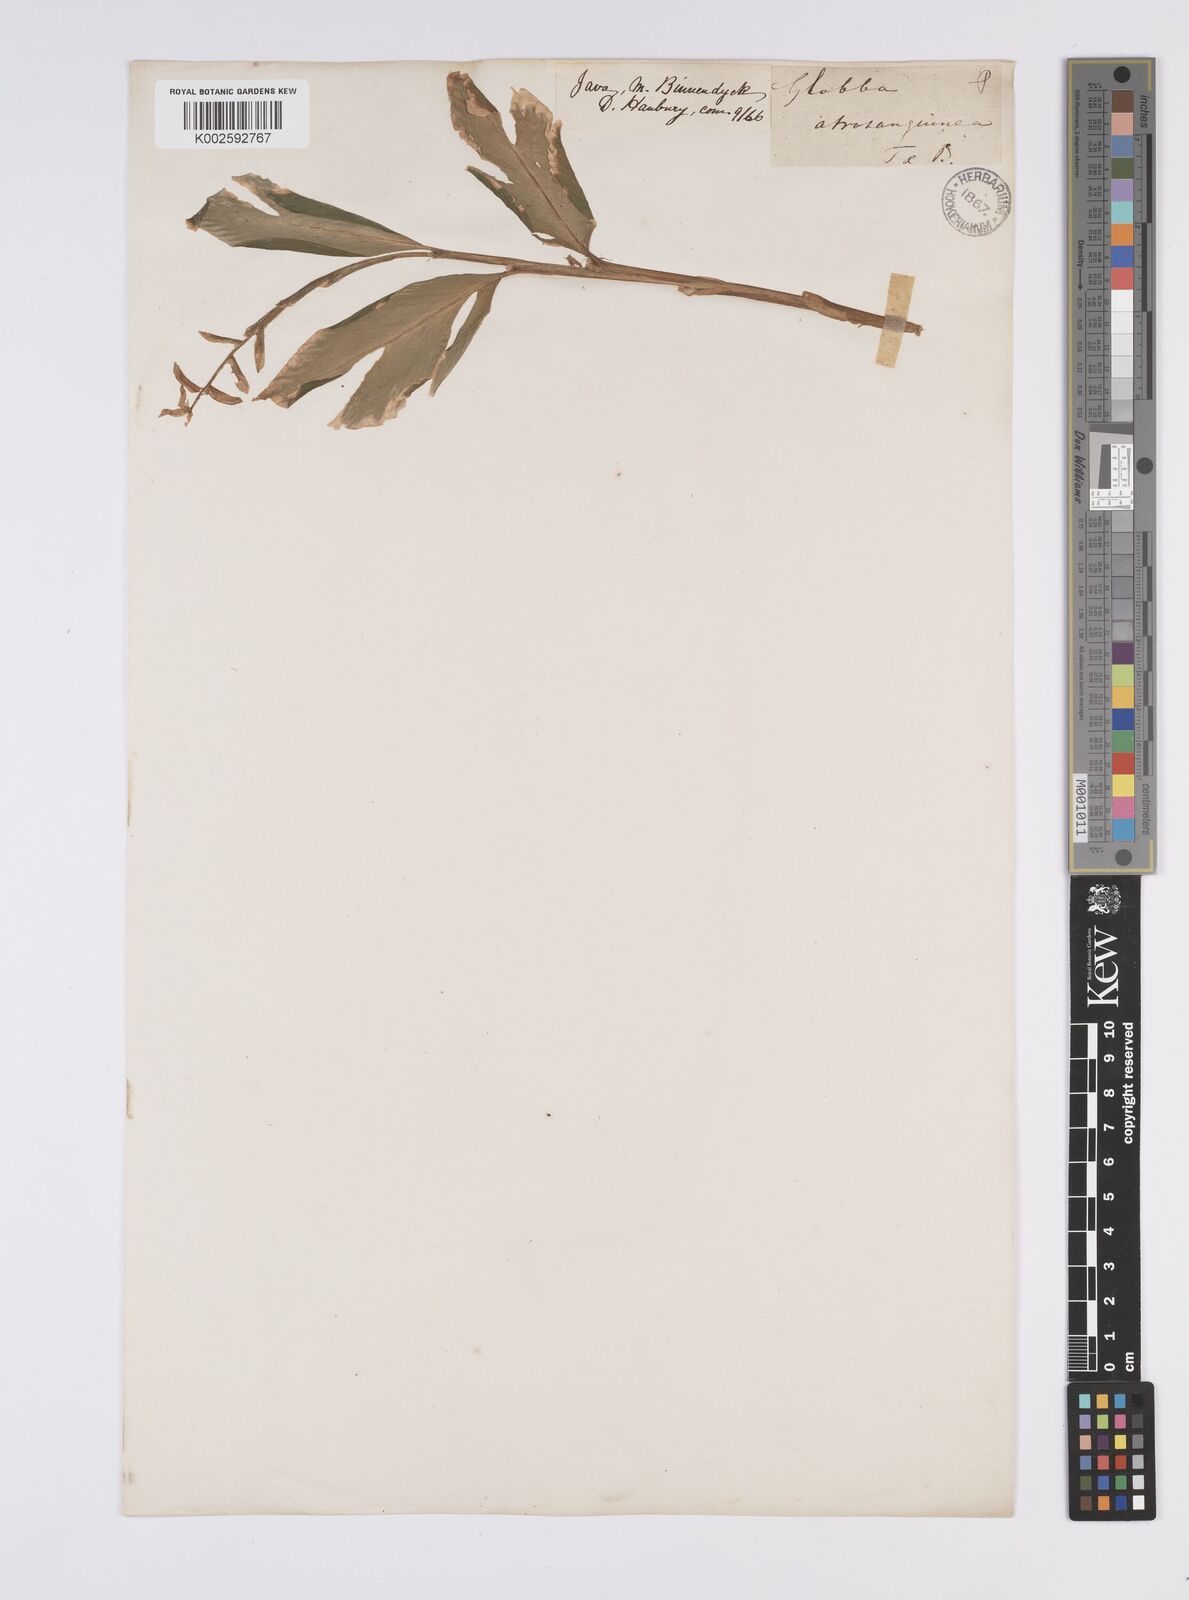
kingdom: Plantae
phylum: Tracheophyta
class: Liliopsida
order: Zingiberales
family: Zingiberaceae
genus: Globba
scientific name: Globba atrosanguinea
